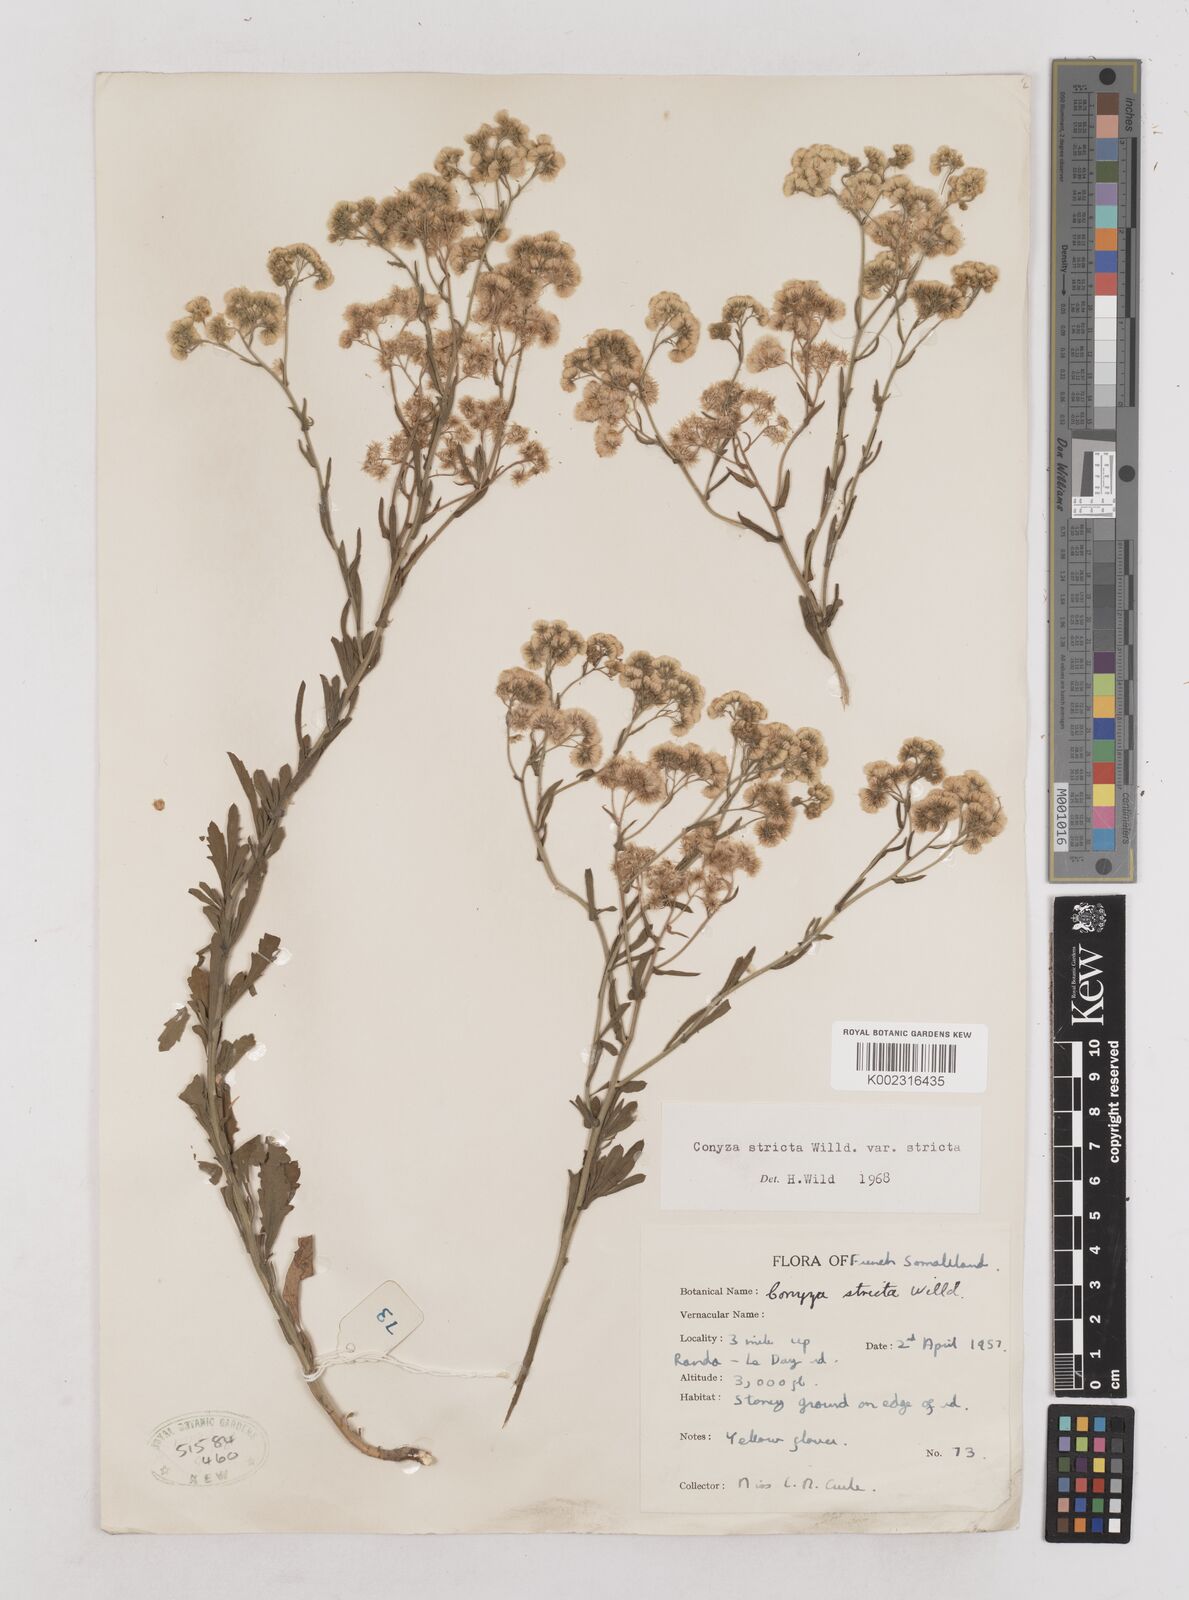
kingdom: Plantae
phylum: Tracheophyta
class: Magnoliopsida
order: Asterales
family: Asteraceae
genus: Nidorella
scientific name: Nidorella triloba
